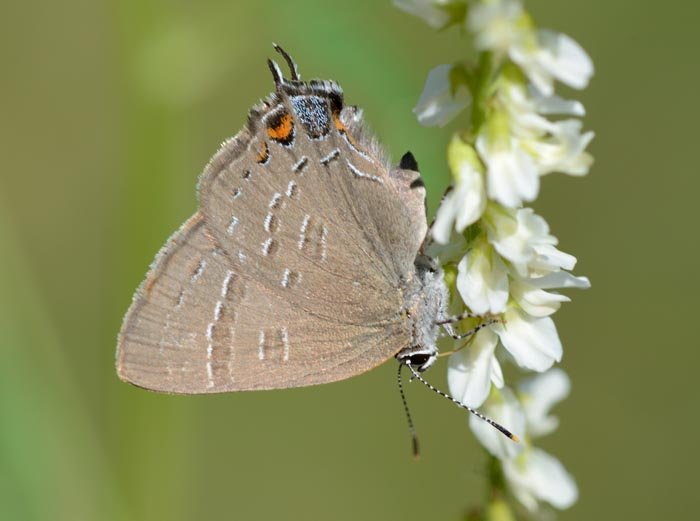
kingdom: Animalia
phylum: Arthropoda
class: Insecta
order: Lepidoptera
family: Lycaenidae
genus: Satyrium
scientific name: Satyrium calanus
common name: Banded Hairstreak
